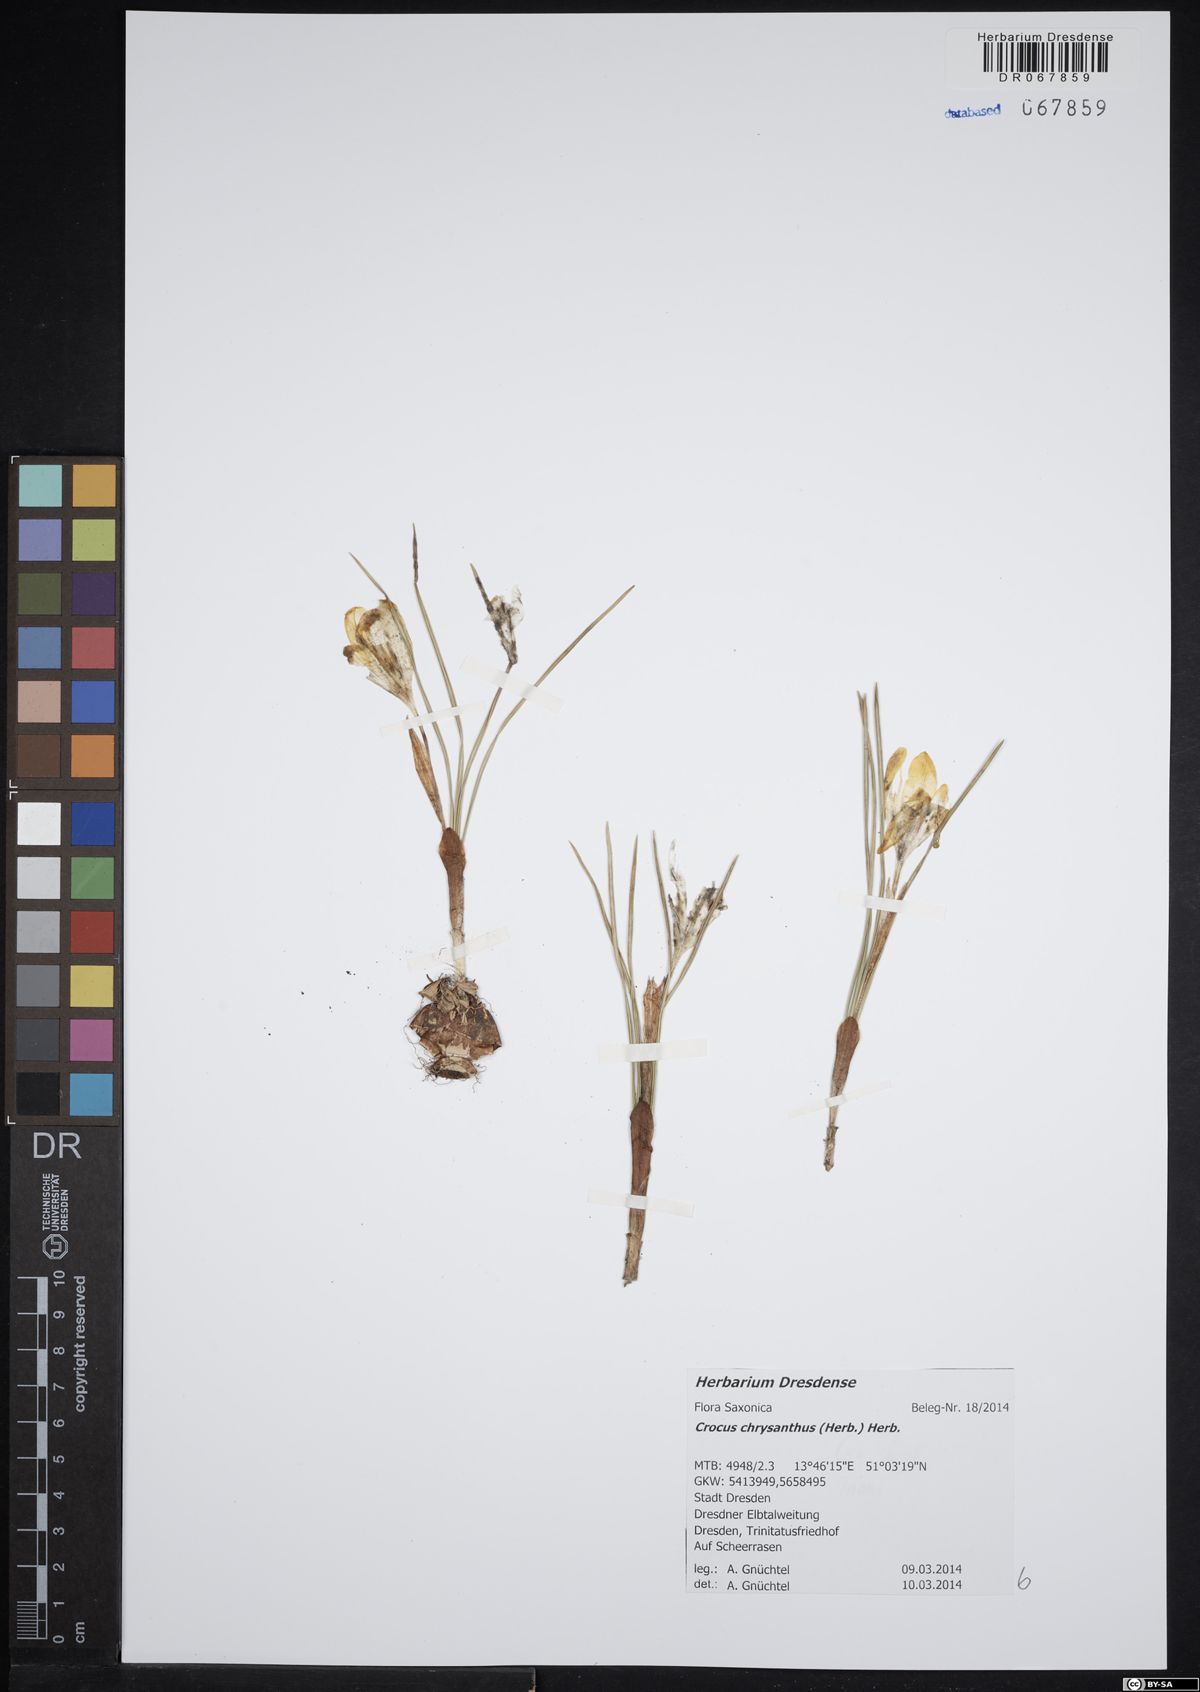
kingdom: Plantae
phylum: Tracheophyta
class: Liliopsida
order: Asparagales
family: Iridaceae
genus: Crocus
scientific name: Crocus chrysanthus
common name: Golden crocus
